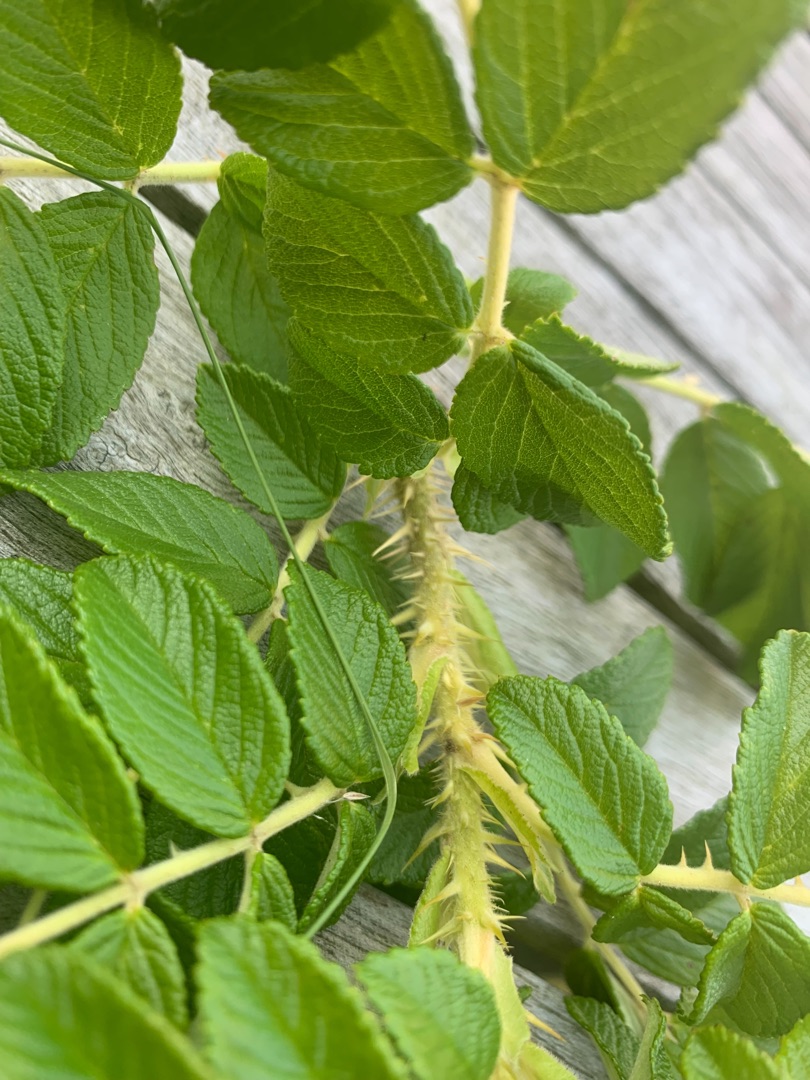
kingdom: Plantae
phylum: Tracheophyta
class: Magnoliopsida
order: Rosales
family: Rosaceae
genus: Rosa
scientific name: Rosa rugosa
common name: Rynket rose
